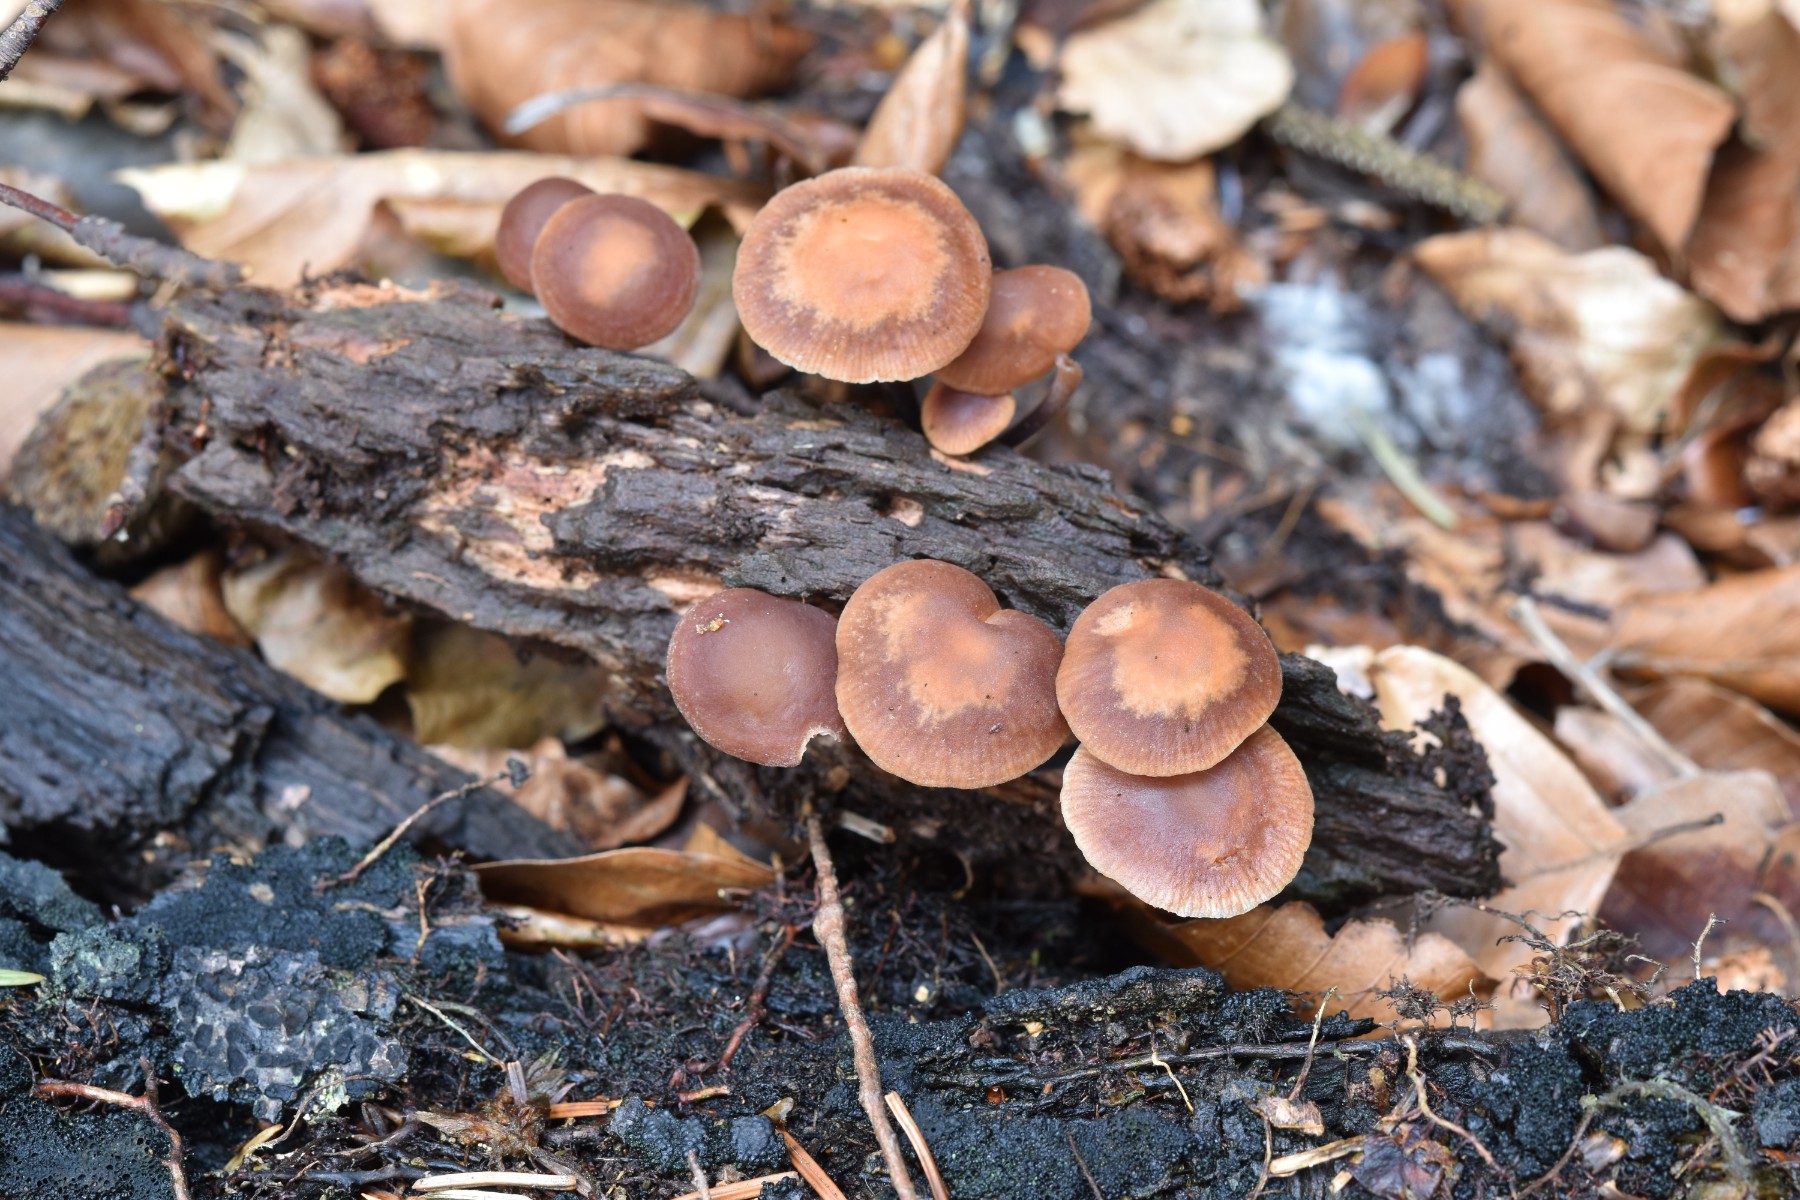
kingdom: Fungi
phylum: Basidiomycota
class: Agaricomycetes
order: Agaricales
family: Omphalotaceae
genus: Gymnopus
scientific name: Gymnopus brassicolens
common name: kål-fladhat
